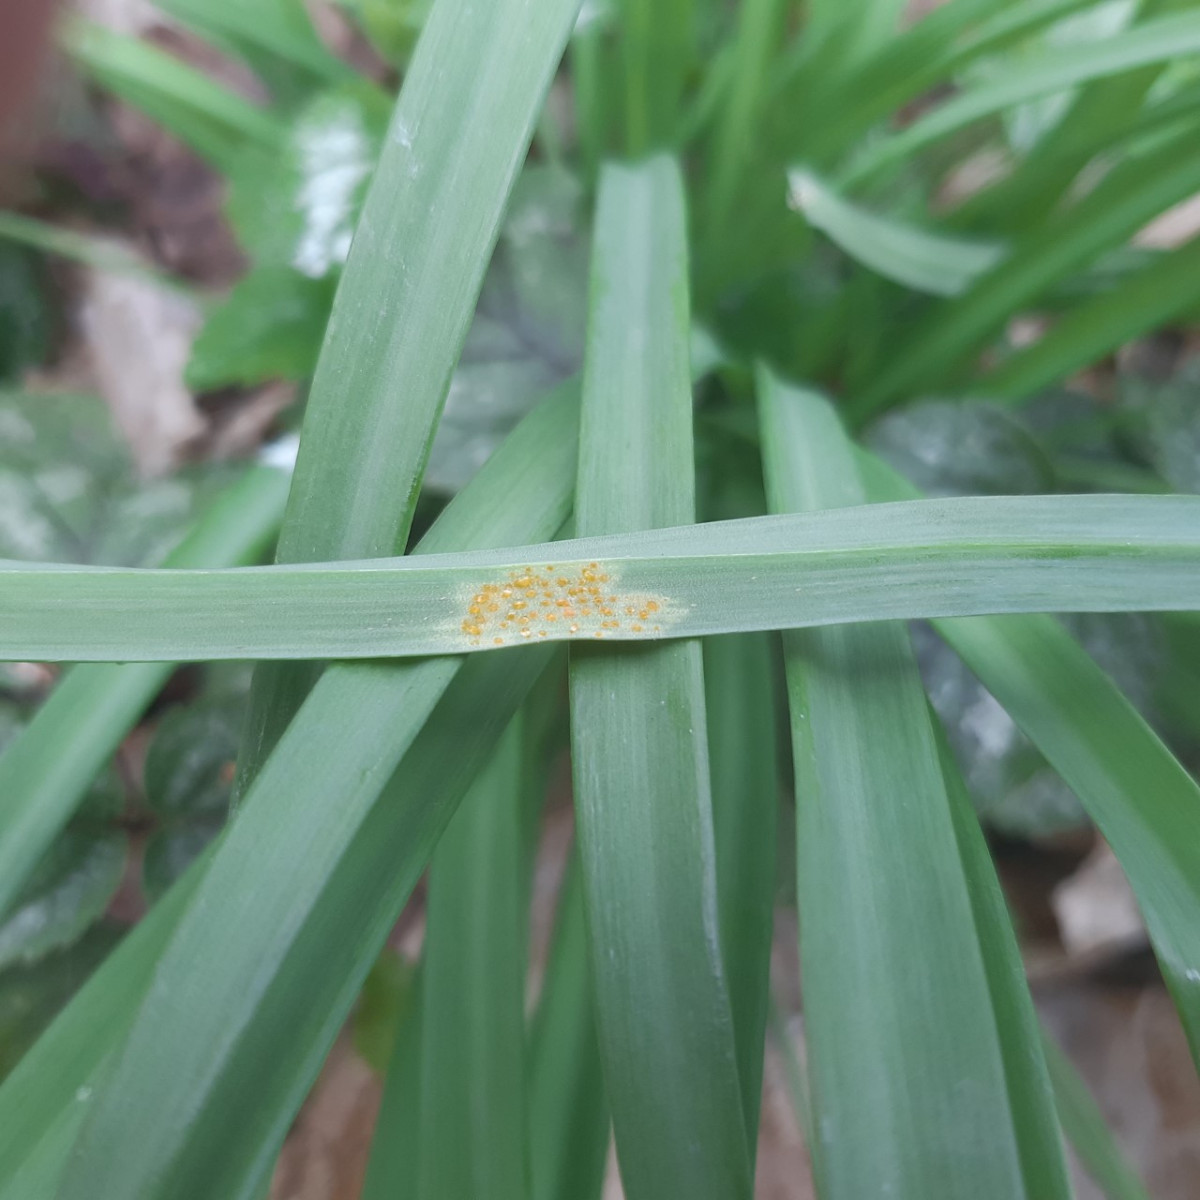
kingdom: Fungi
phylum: Basidiomycota
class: Pucciniomycetes
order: Pucciniales
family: Melampsoraceae
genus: Melampsora
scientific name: Melampsora galanthi-fragilis
